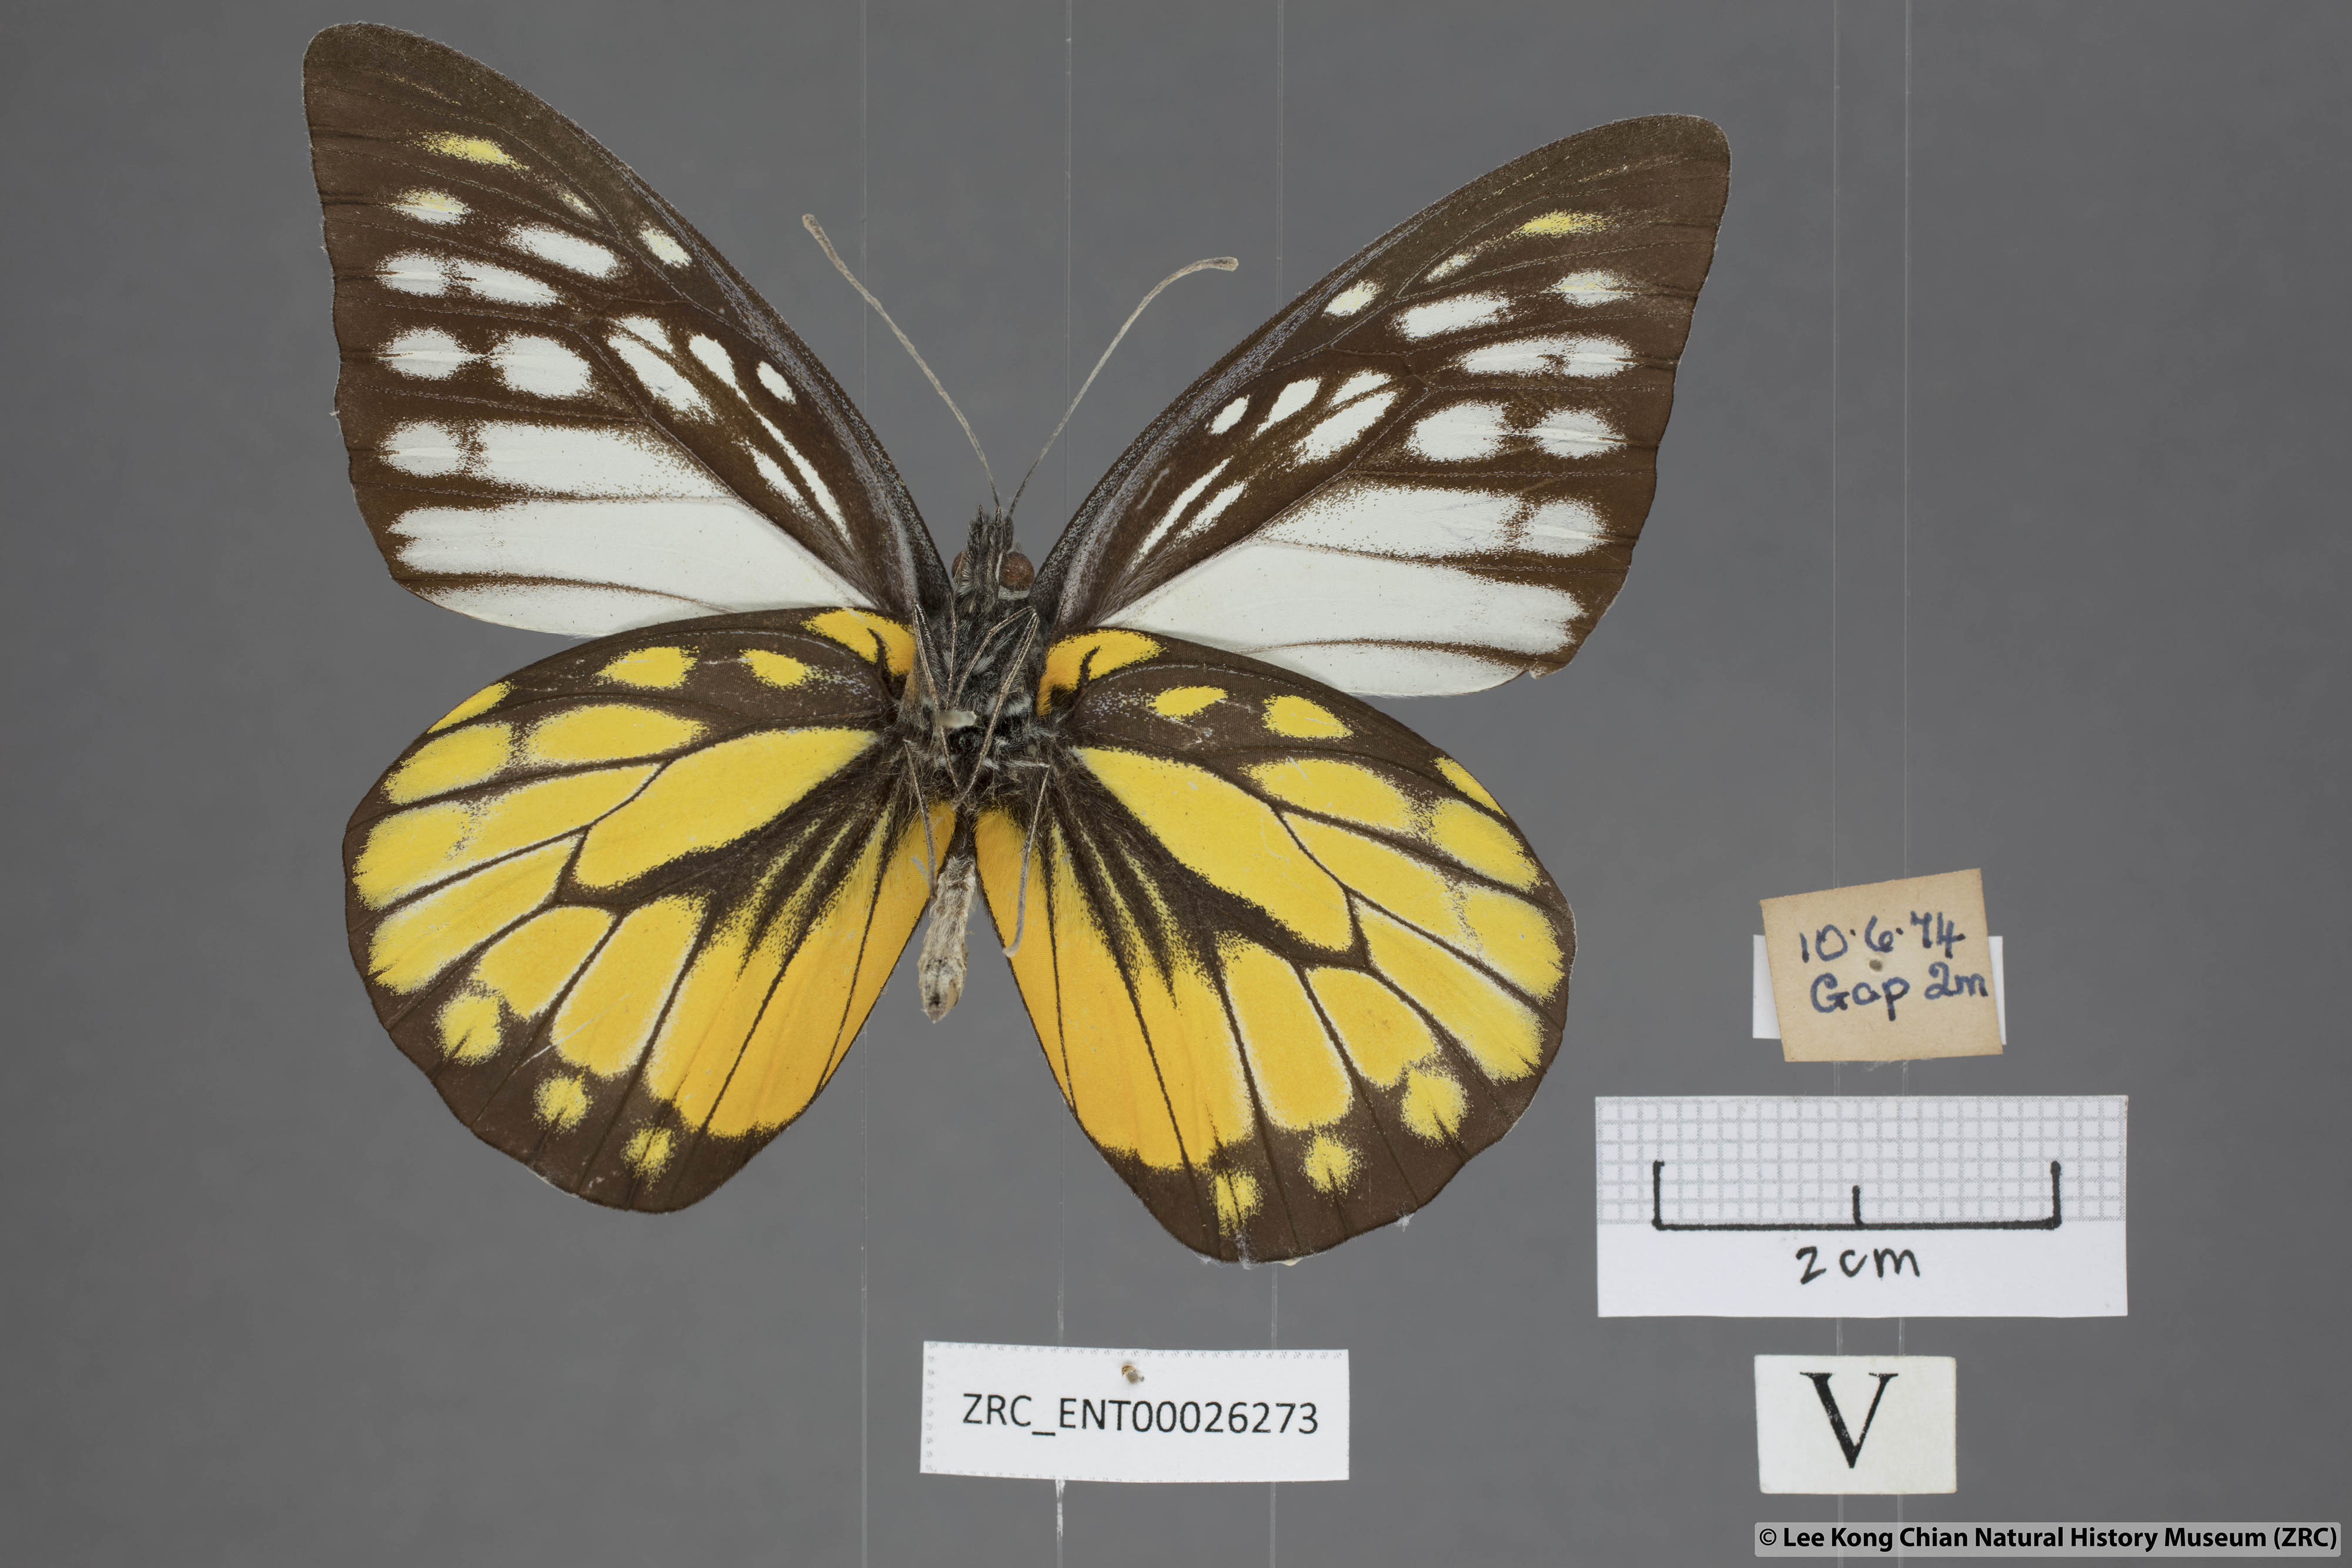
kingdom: Animalia
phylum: Arthropoda
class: Insecta
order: Lepidoptera
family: Pieridae
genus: Prioneris
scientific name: Prioneris thestylis
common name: Spotted sawtooth
